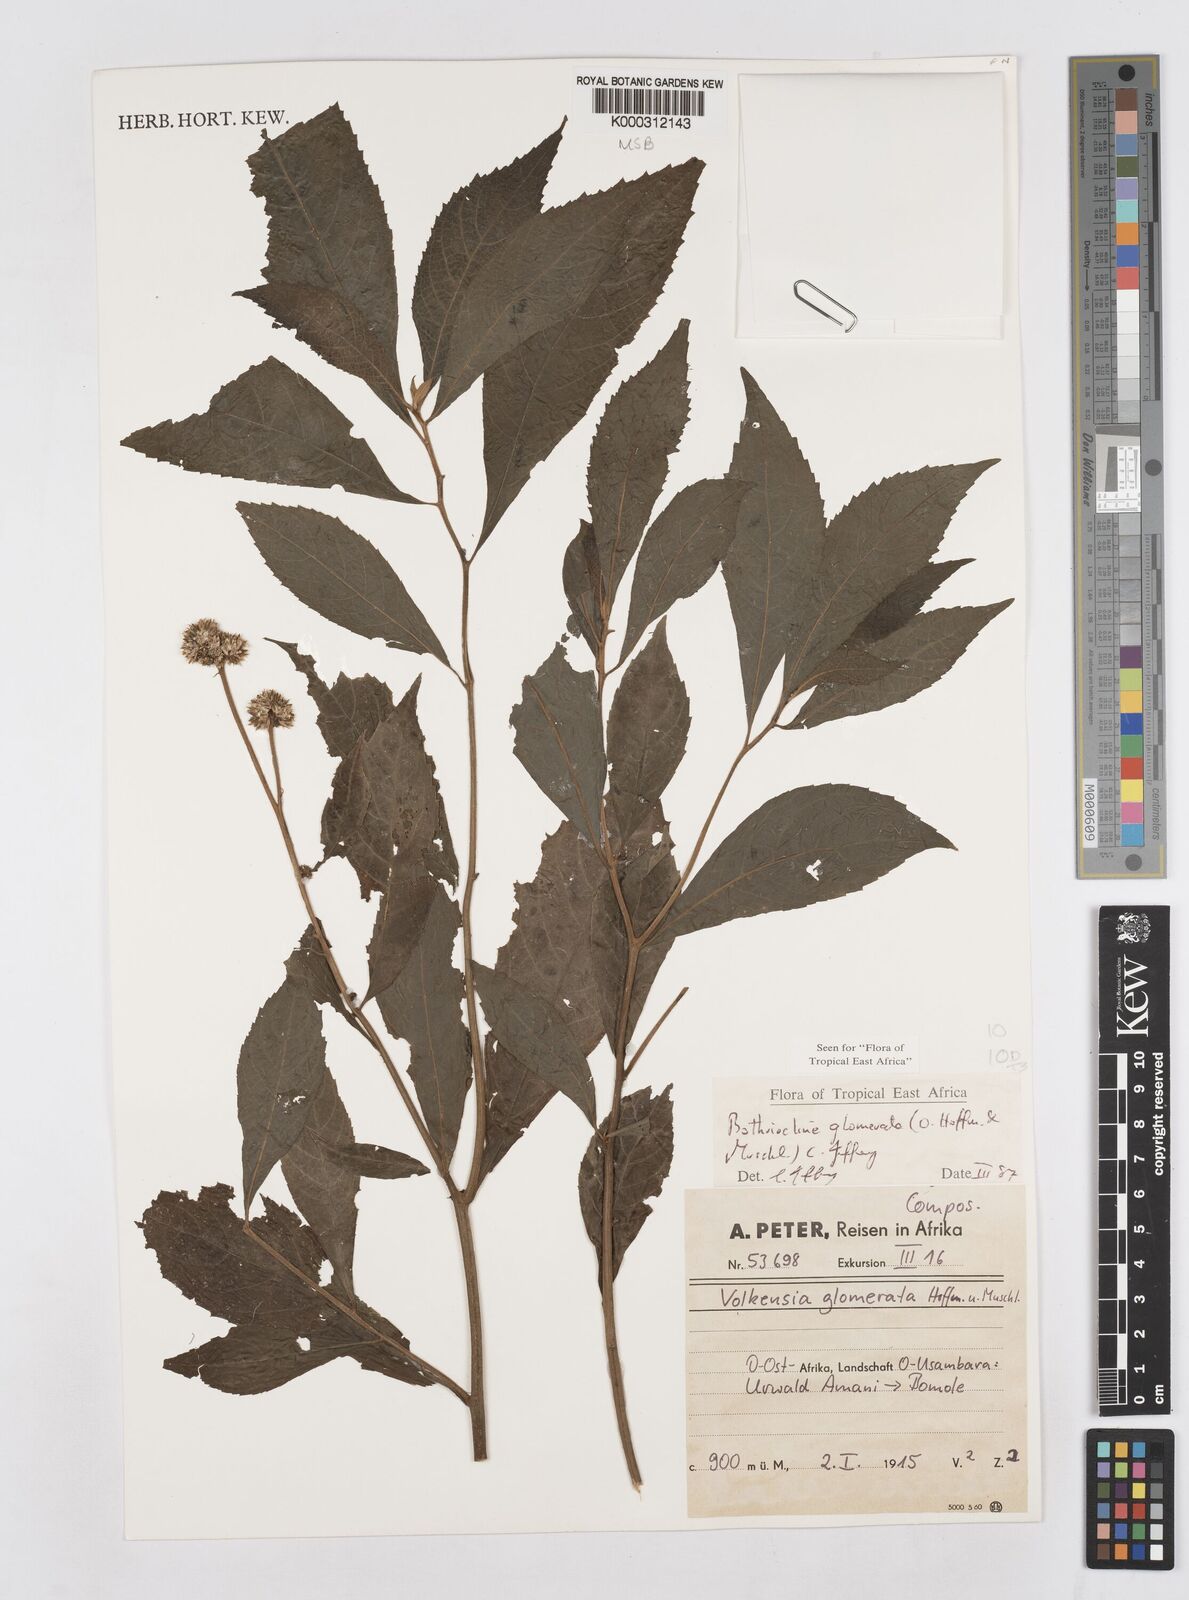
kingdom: Plantae
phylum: Tracheophyta
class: Magnoliopsida
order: Asterales
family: Asteraceae
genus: Bothriocline
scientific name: Bothriocline glomerata
